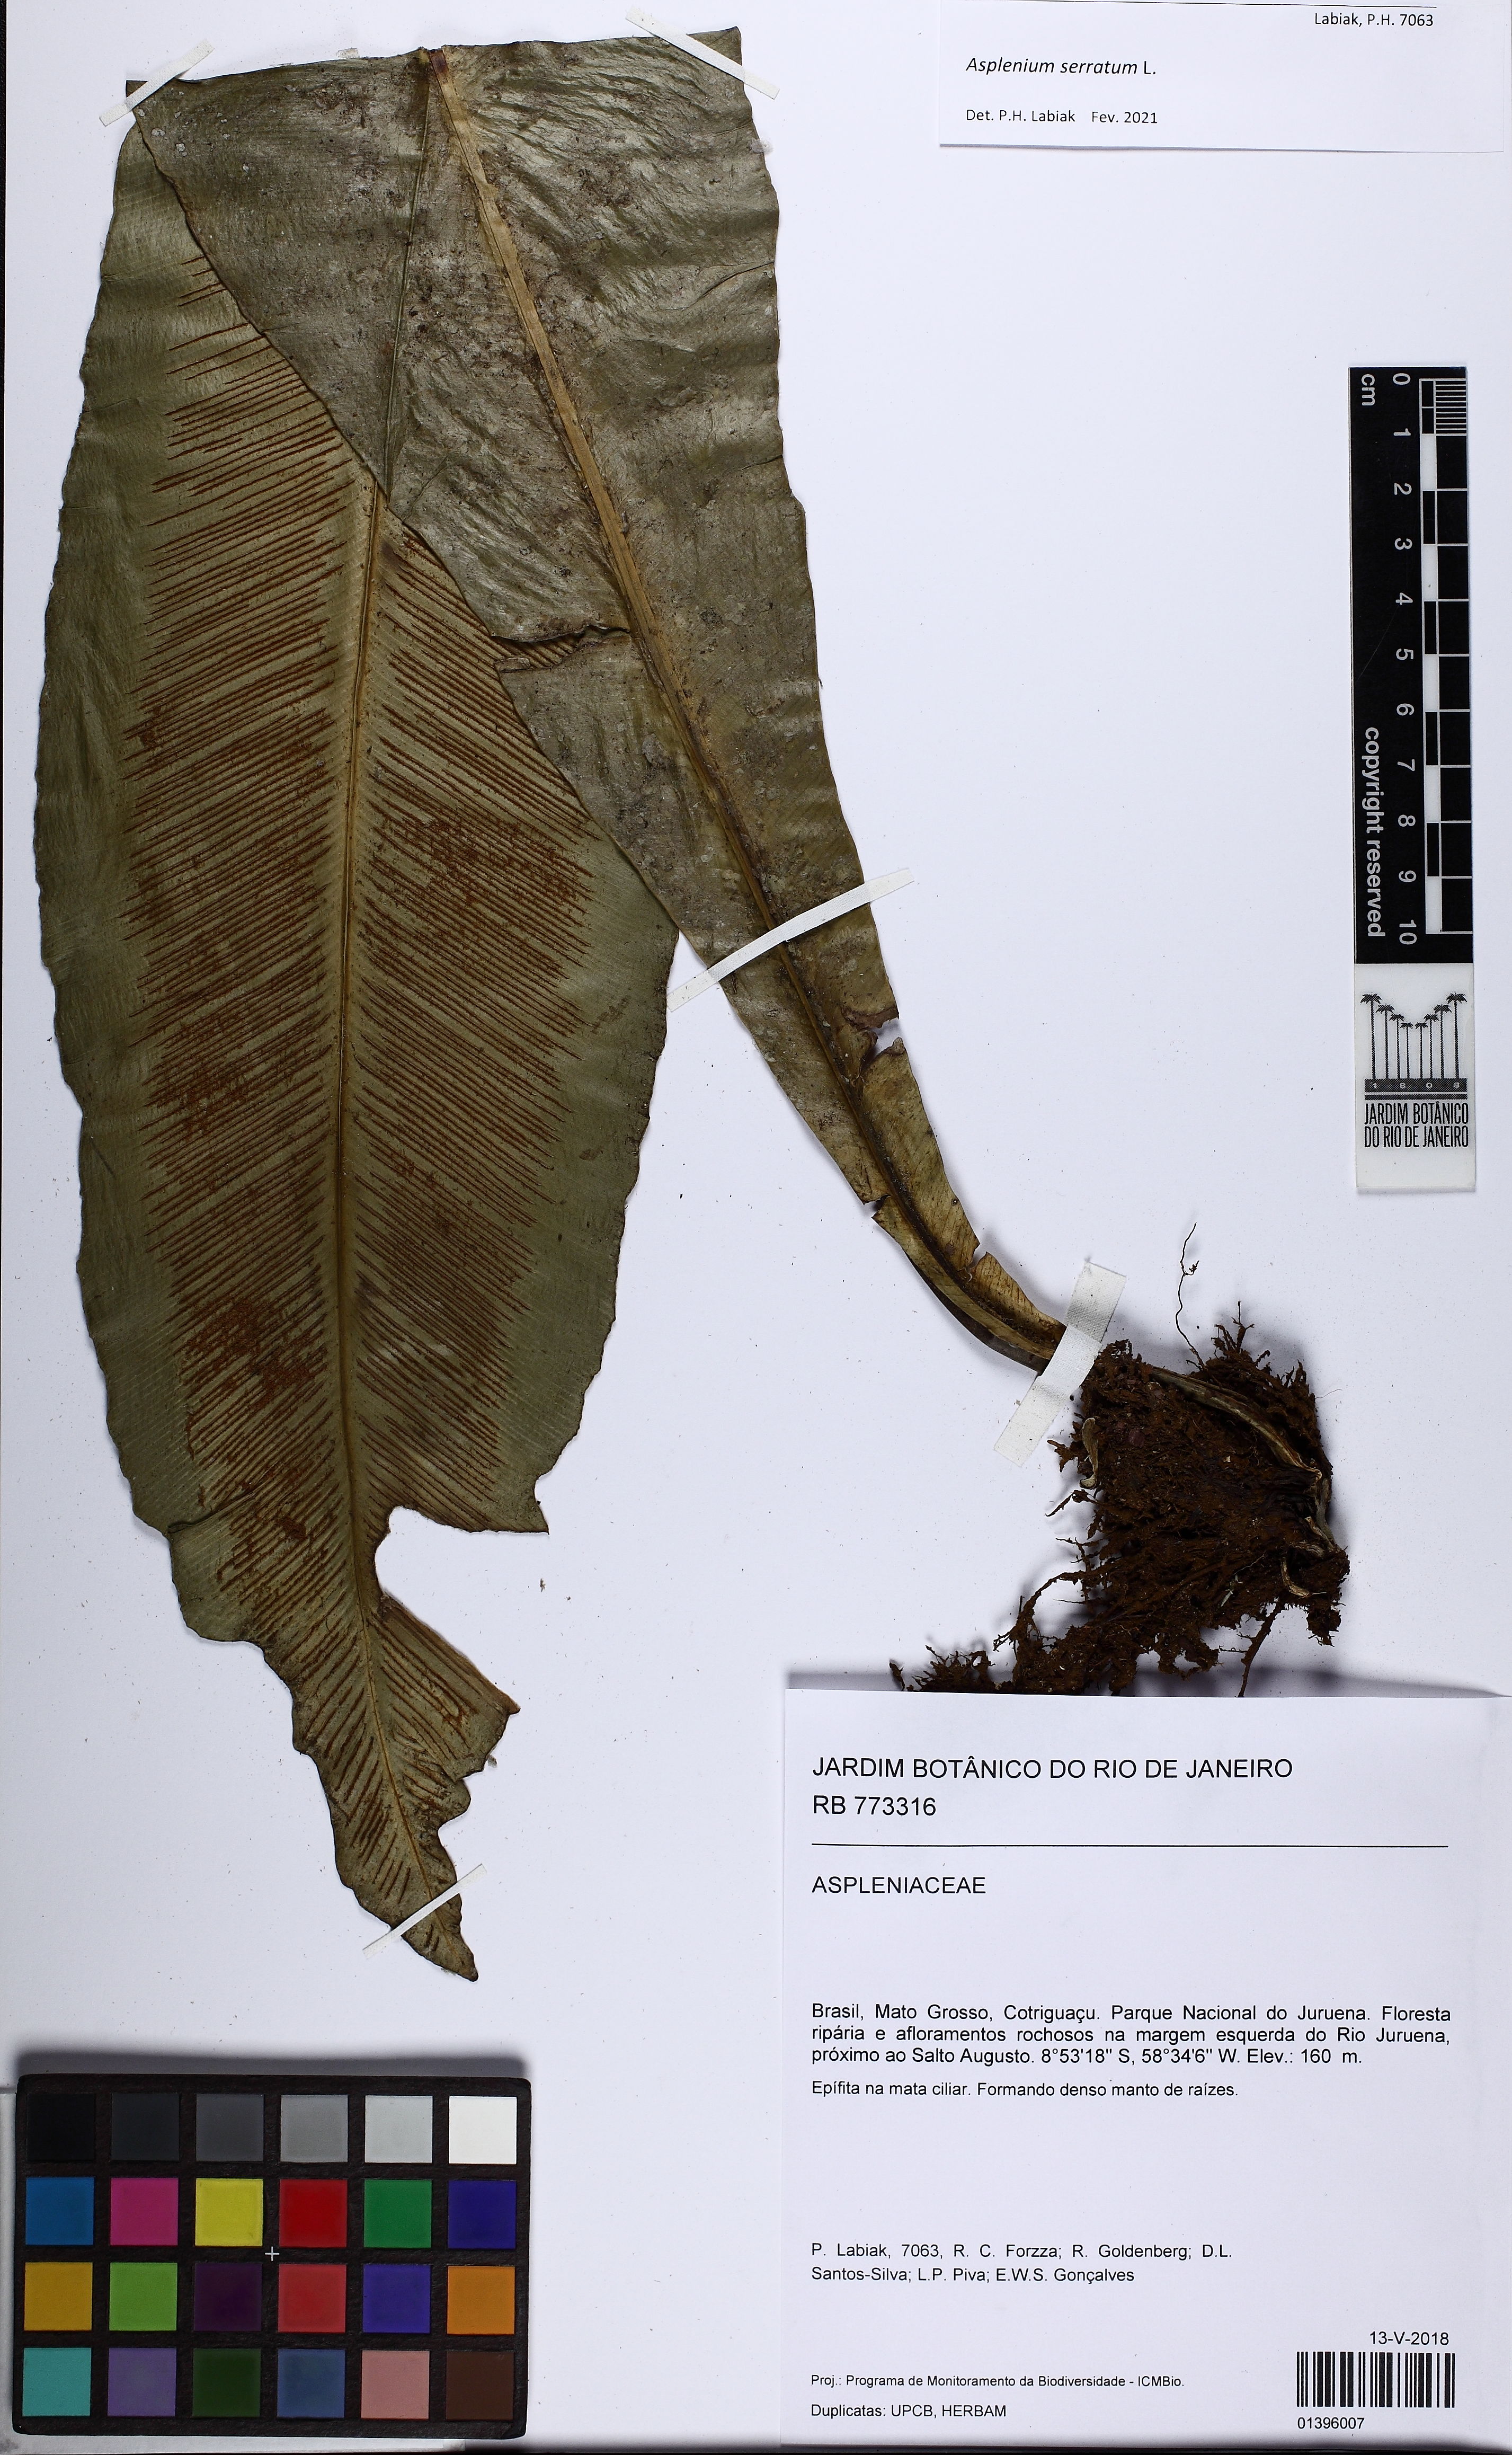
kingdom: Plantae
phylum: Tracheophyta
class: Polypodiopsida
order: Polypodiales
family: Aspleniaceae
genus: Asplenium
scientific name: Asplenium serratum
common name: Wild birdnest fern
